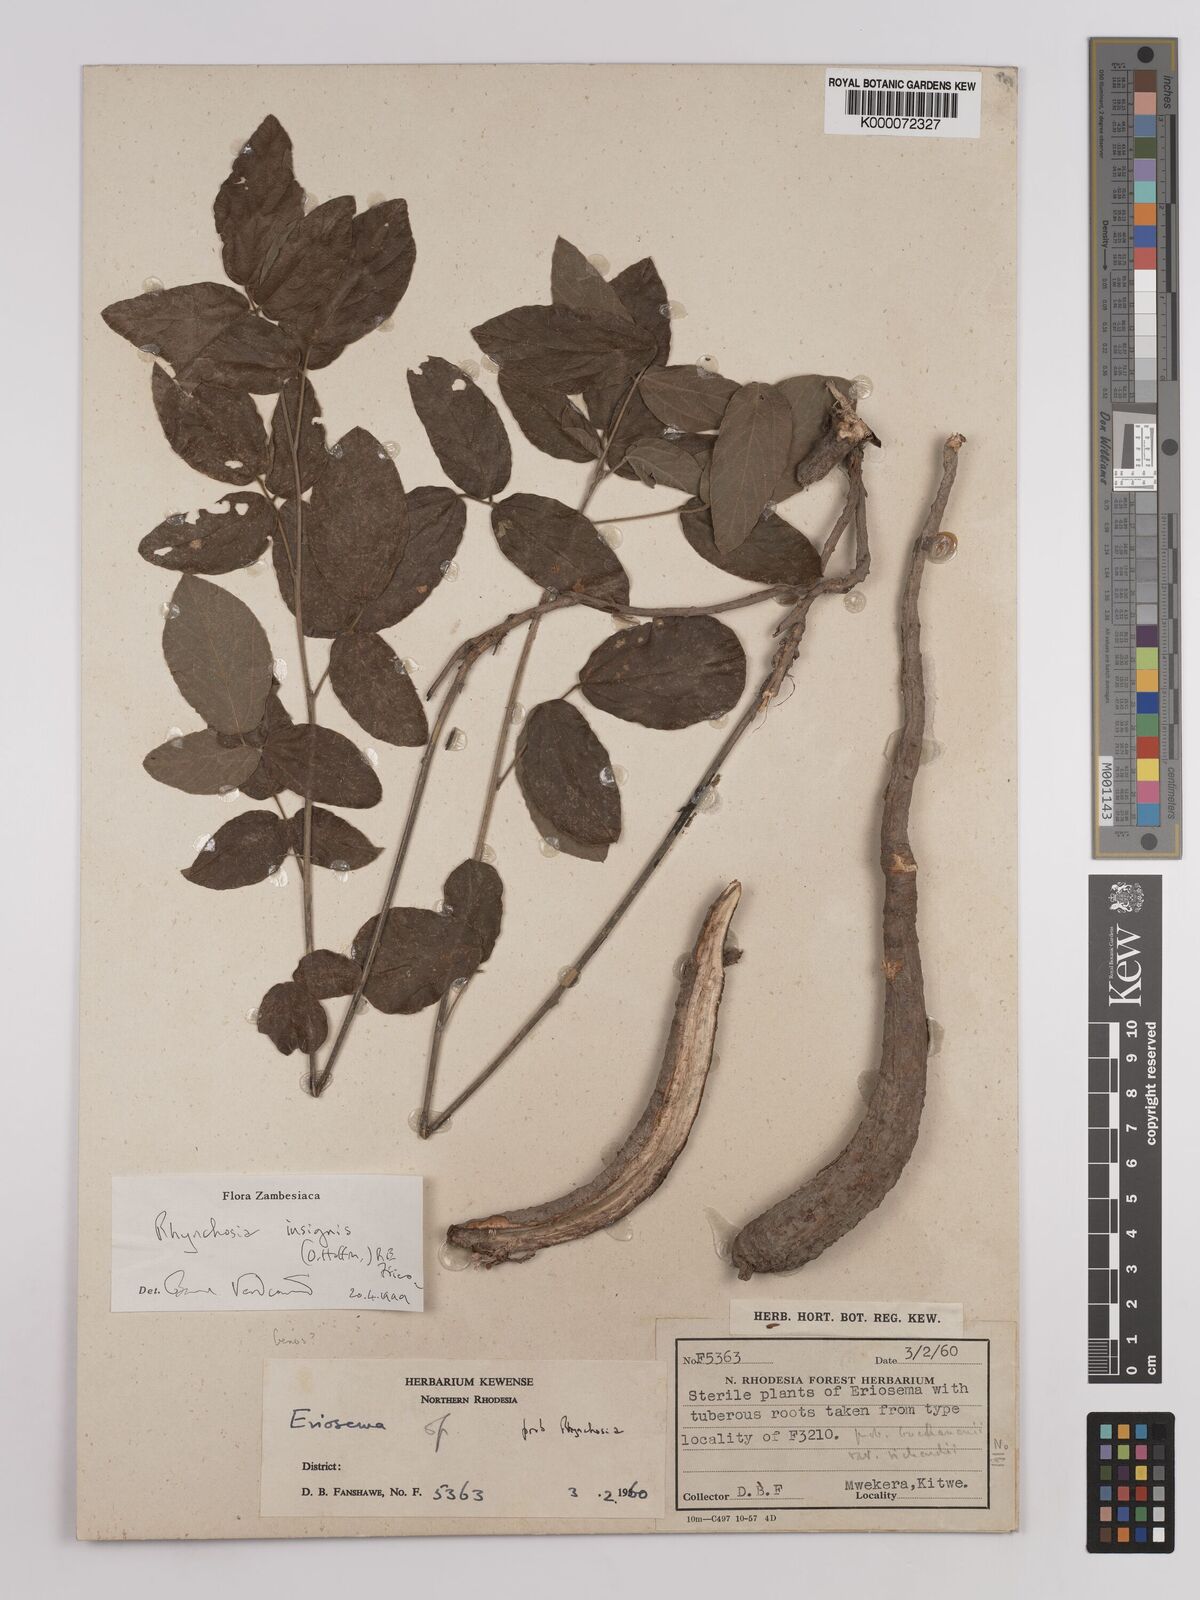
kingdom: Plantae
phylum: Tracheophyta
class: Magnoliopsida
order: Fabales
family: Fabaceae
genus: Rhynchosia
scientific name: Rhynchosia insignis
